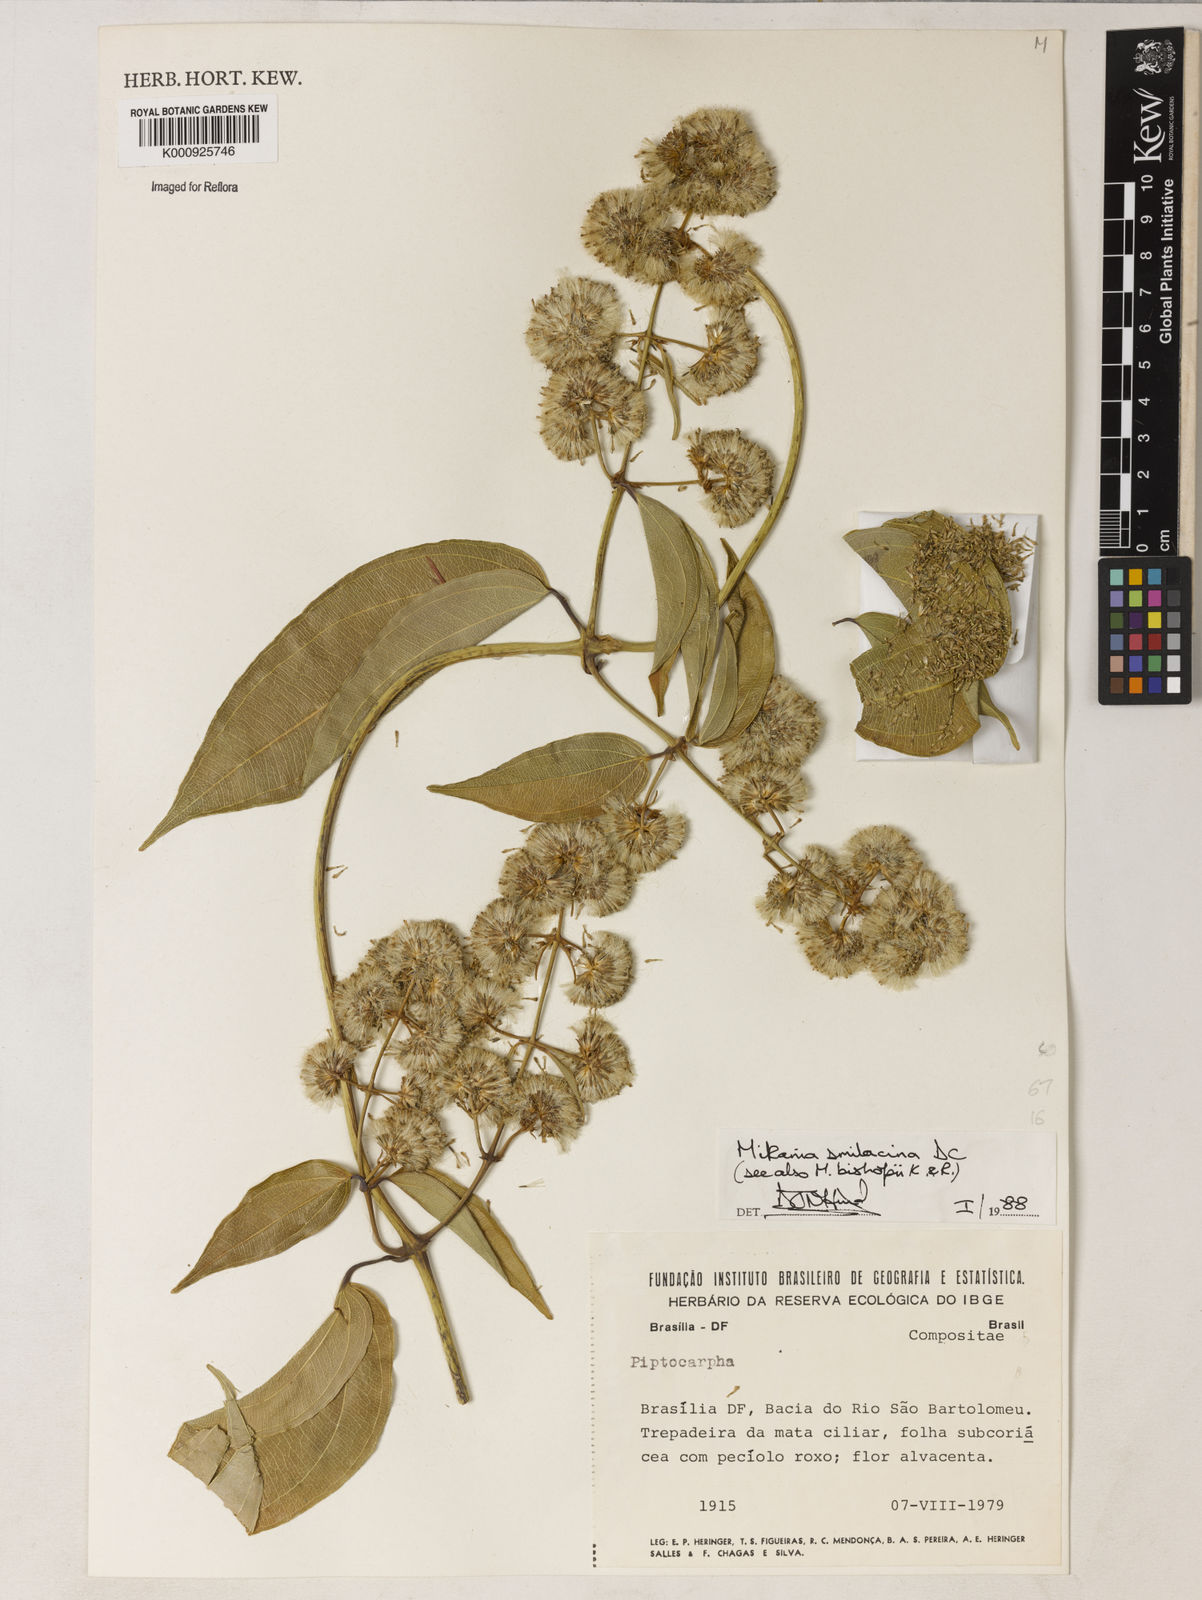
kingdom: Plantae
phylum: Tracheophyta
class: Magnoliopsida
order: Asterales
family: Asteraceae
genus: Mikania
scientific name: Mikania smilacina
